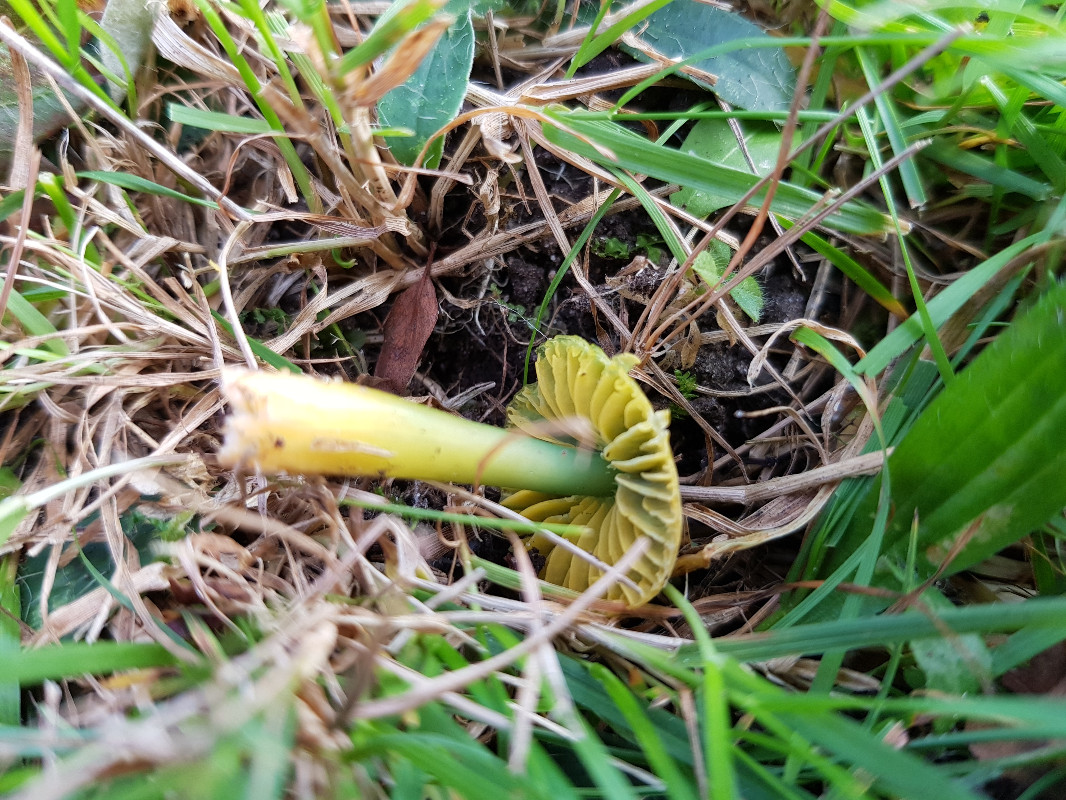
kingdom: Fungi
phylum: Basidiomycota
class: Agaricomycetes
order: Agaricales
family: Hygrophoraceae
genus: Gliophorus
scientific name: Gliophorus psittacinus
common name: papegøje-vokshat
